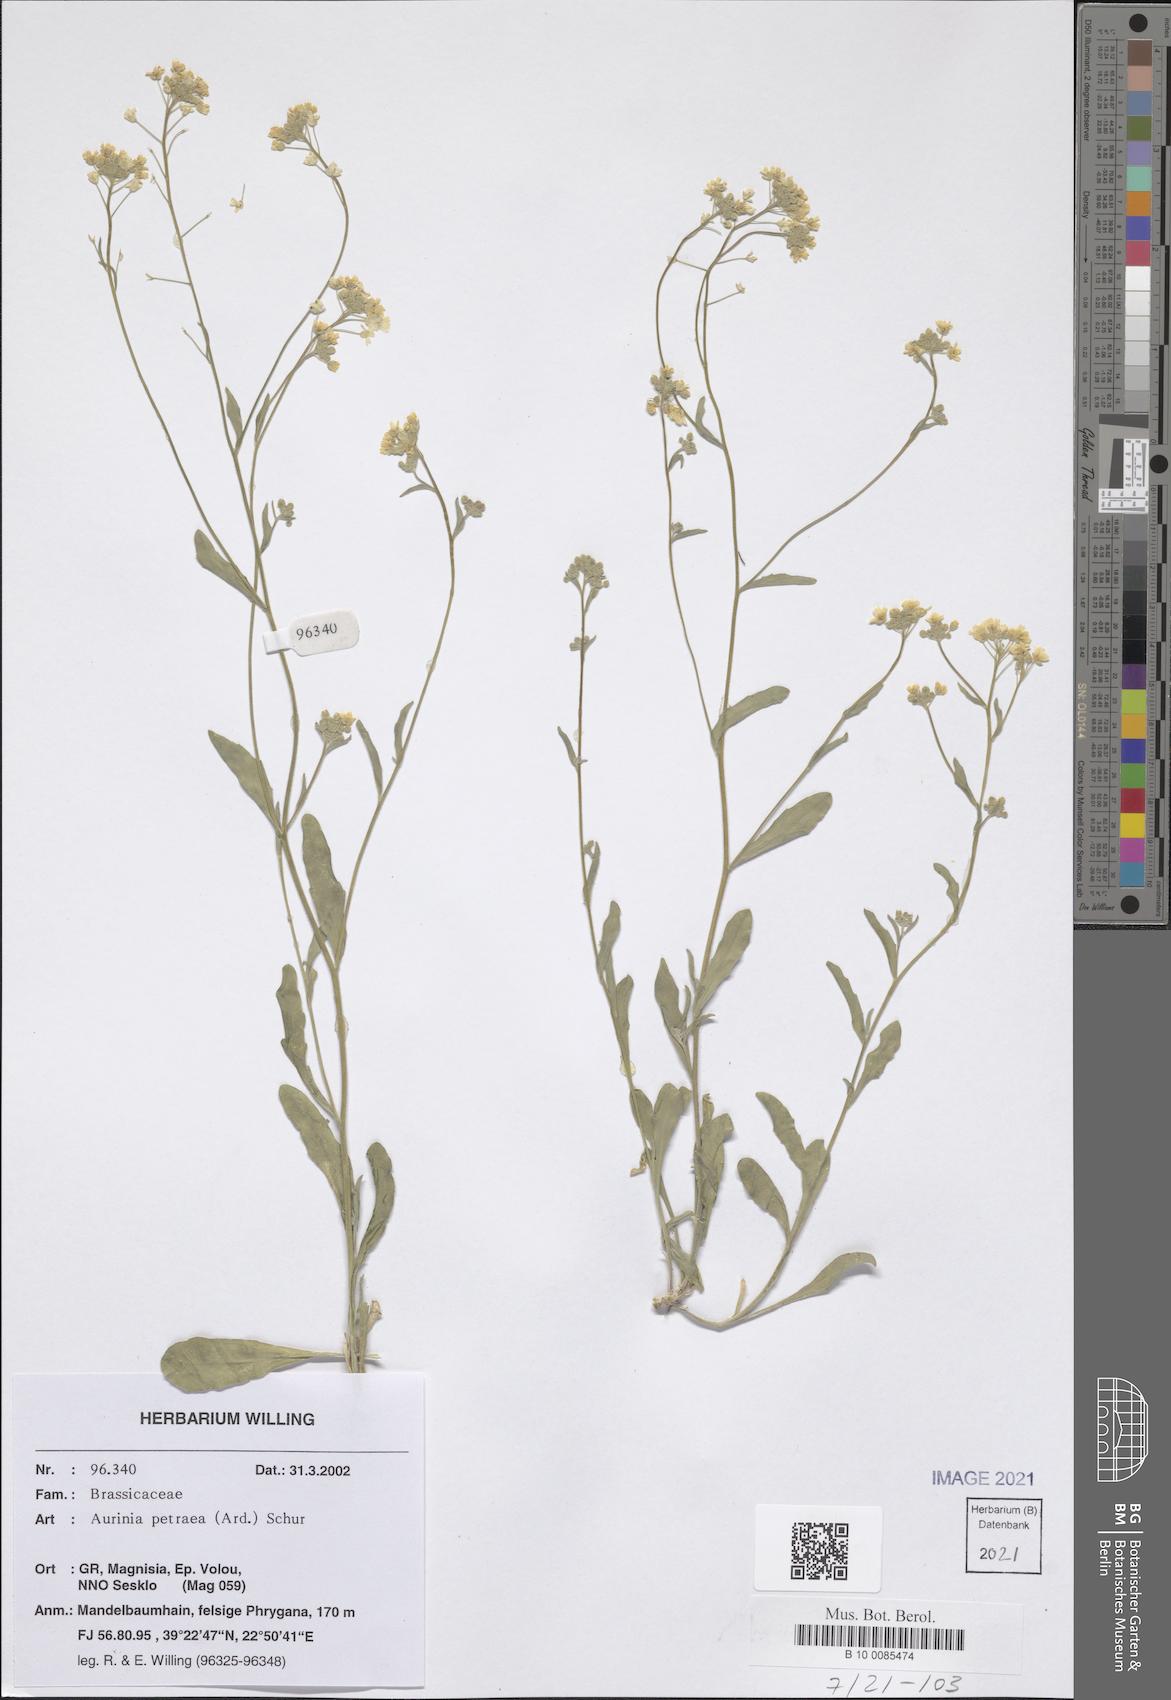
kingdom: Plantae
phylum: Tracheophyta
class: Magnoliopsida
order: Brassicales
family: Brassicaceae
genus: Aurinia
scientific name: Aurinia petraea
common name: Goldentuft
